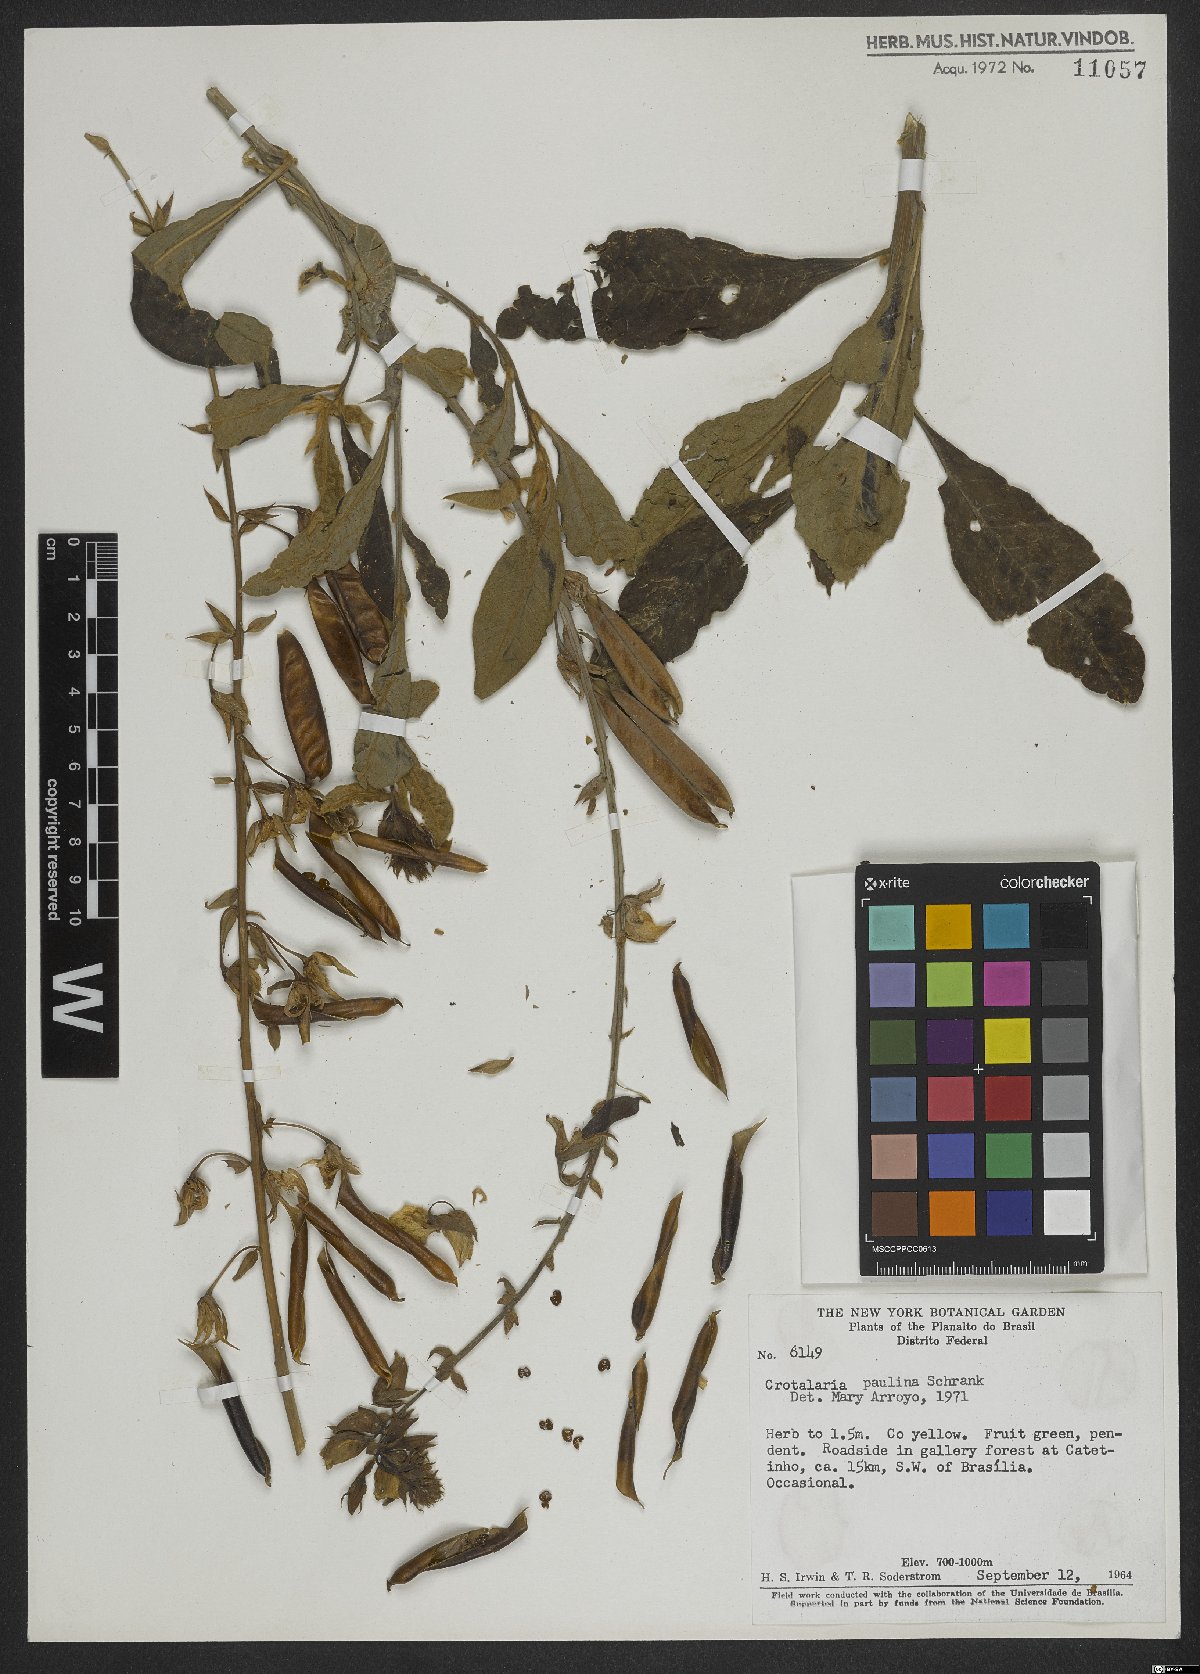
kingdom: Plantae
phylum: Tracheophyta
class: Magnoliopsida
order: Fabales
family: Fabaceae
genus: Crotalaria
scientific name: Crotalaria paulina
